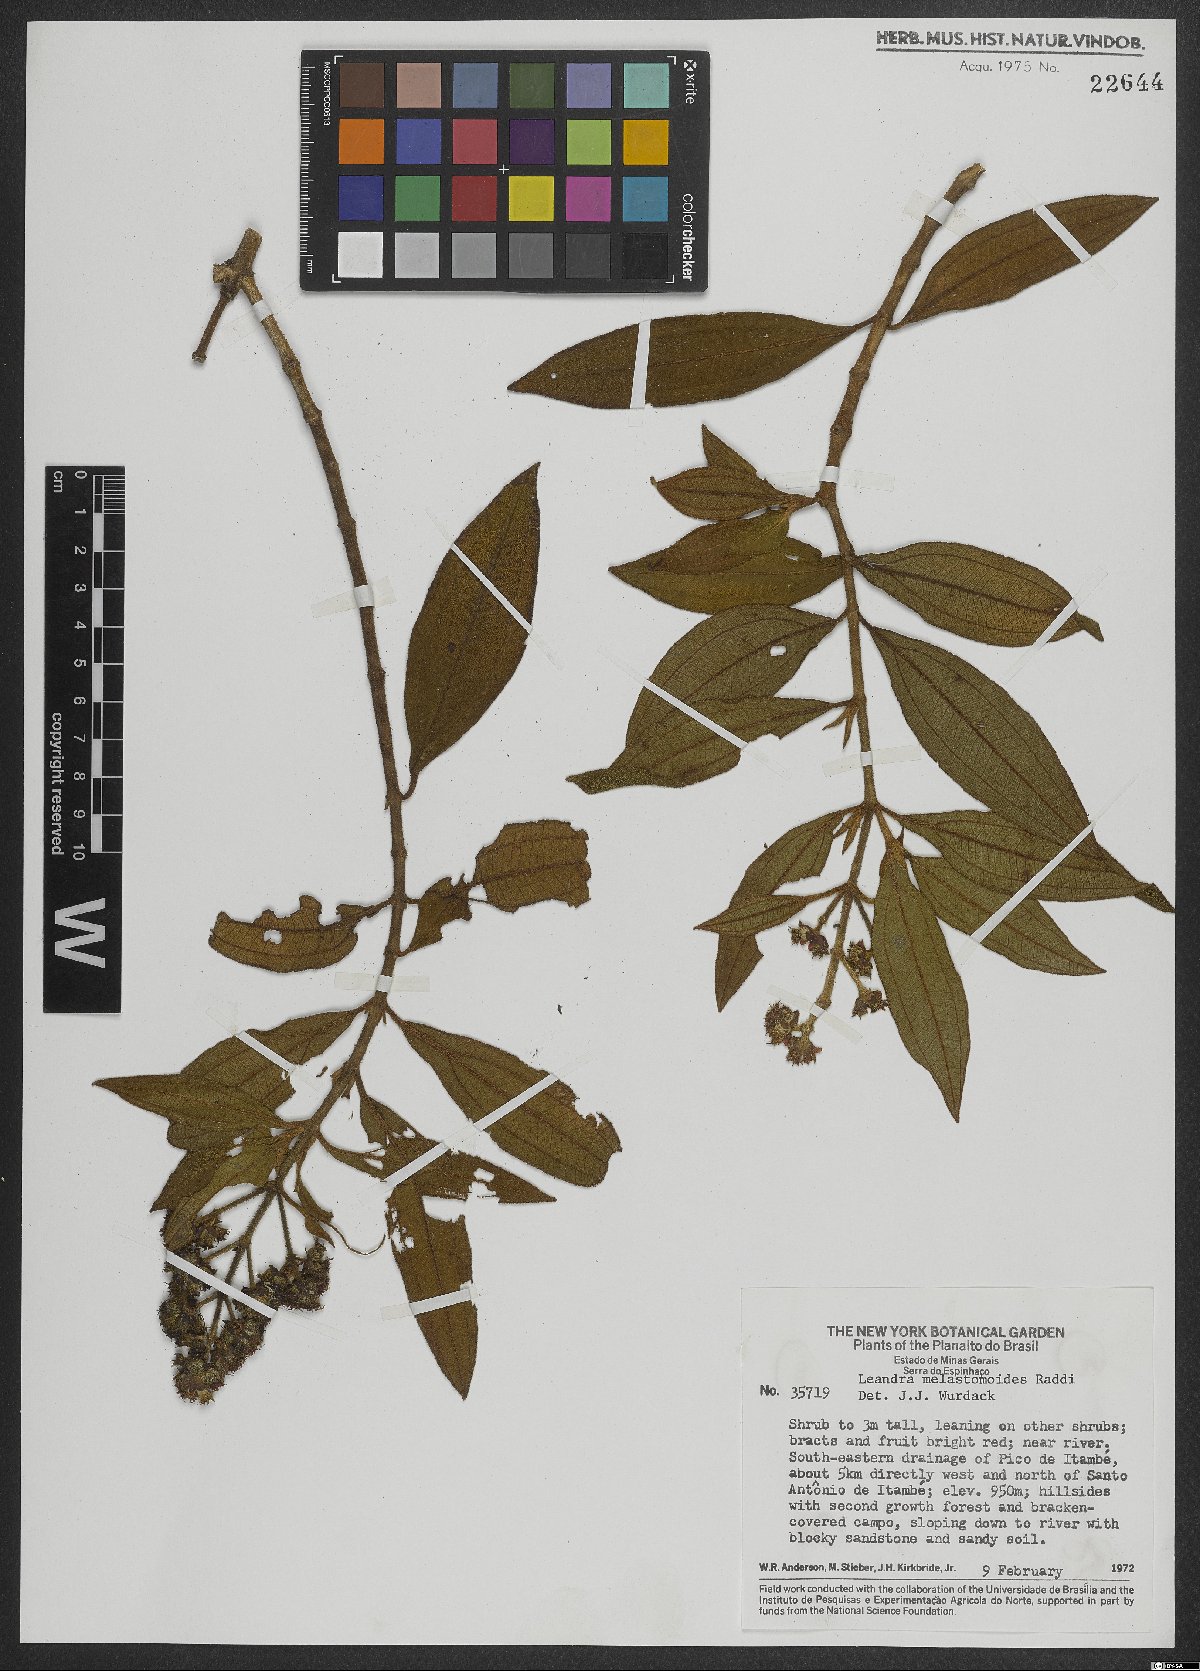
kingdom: Plantae
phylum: Tracheophyta
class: Magnoliopsida
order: Myrtales
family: Melastomataceae
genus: Miconia
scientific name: Miconia melastomoides
